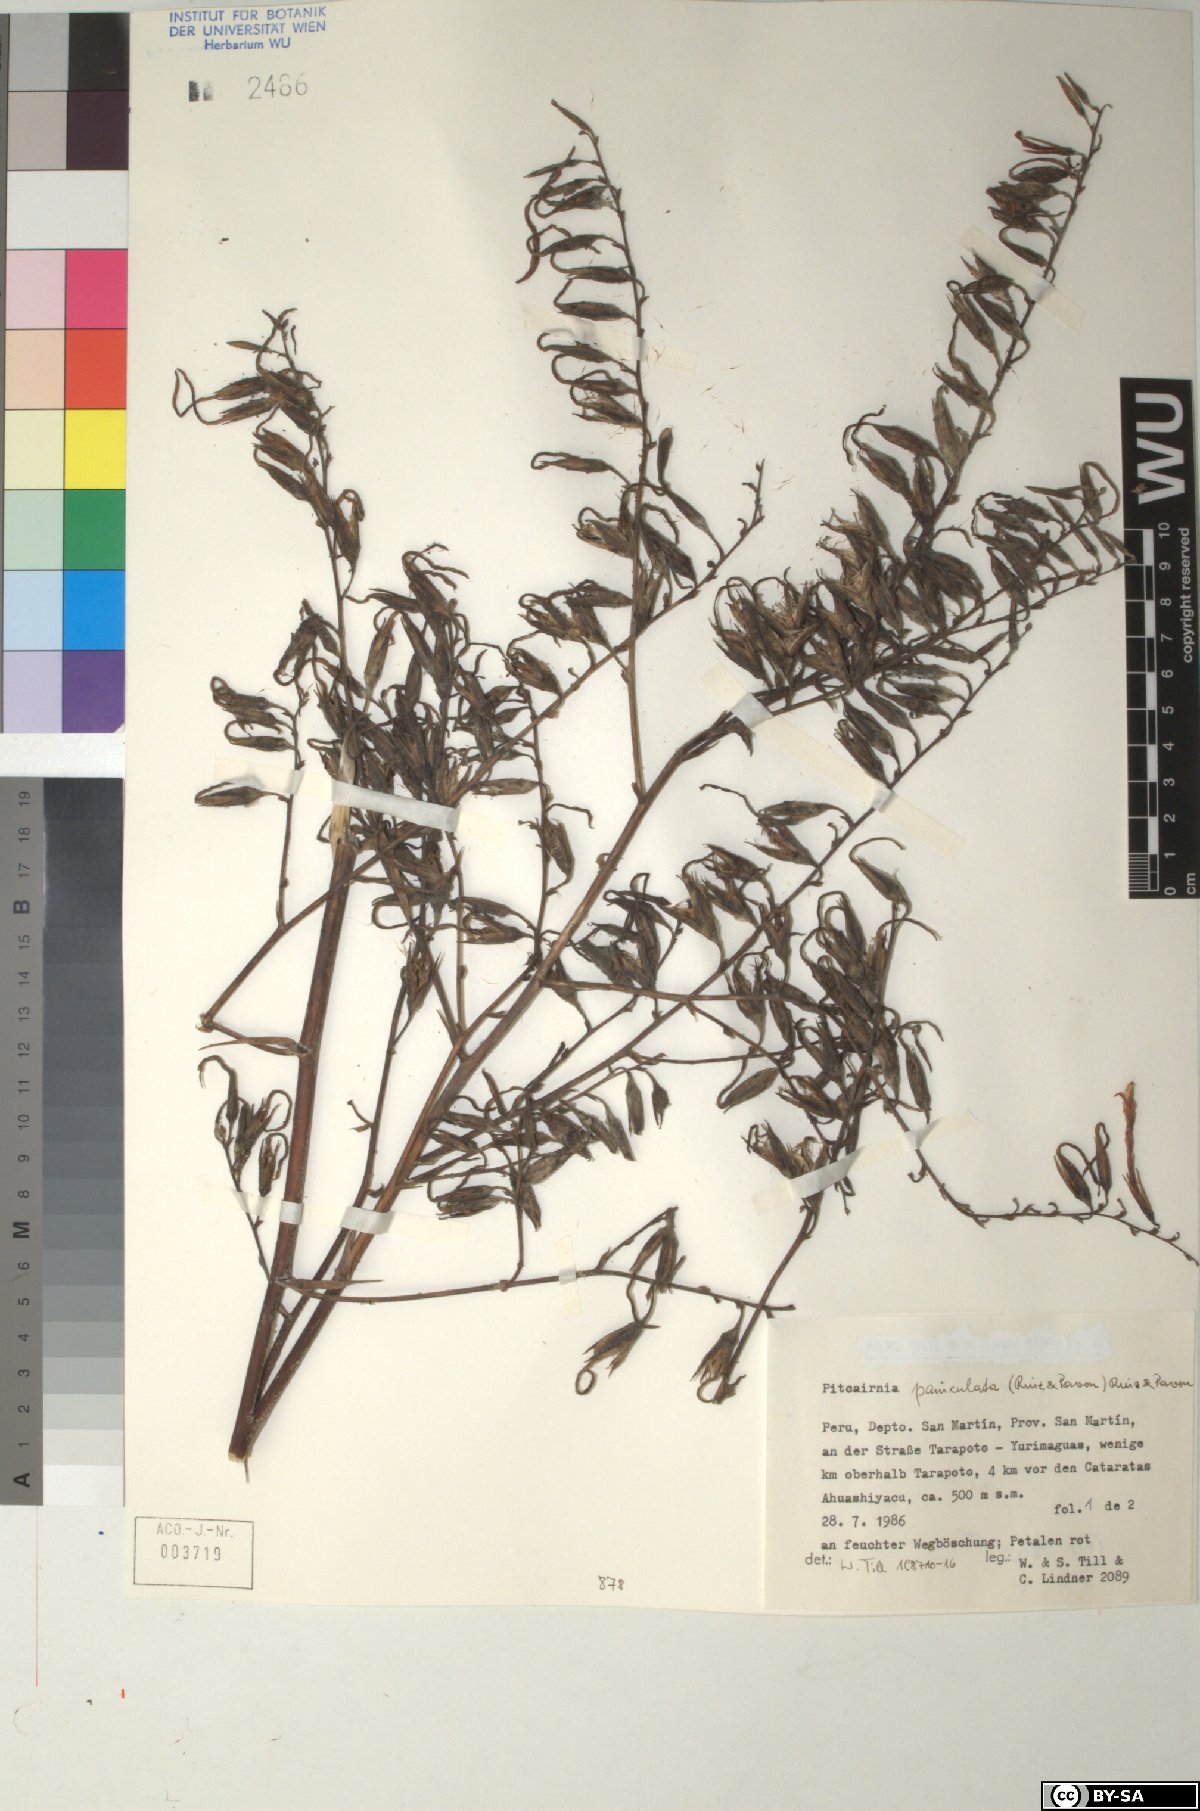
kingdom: Plantae
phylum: Tracheophyta
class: Liliopsida
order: Poales
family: Bromeliaceae
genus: Pitcairnia
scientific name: Pitcairnia paniculata
